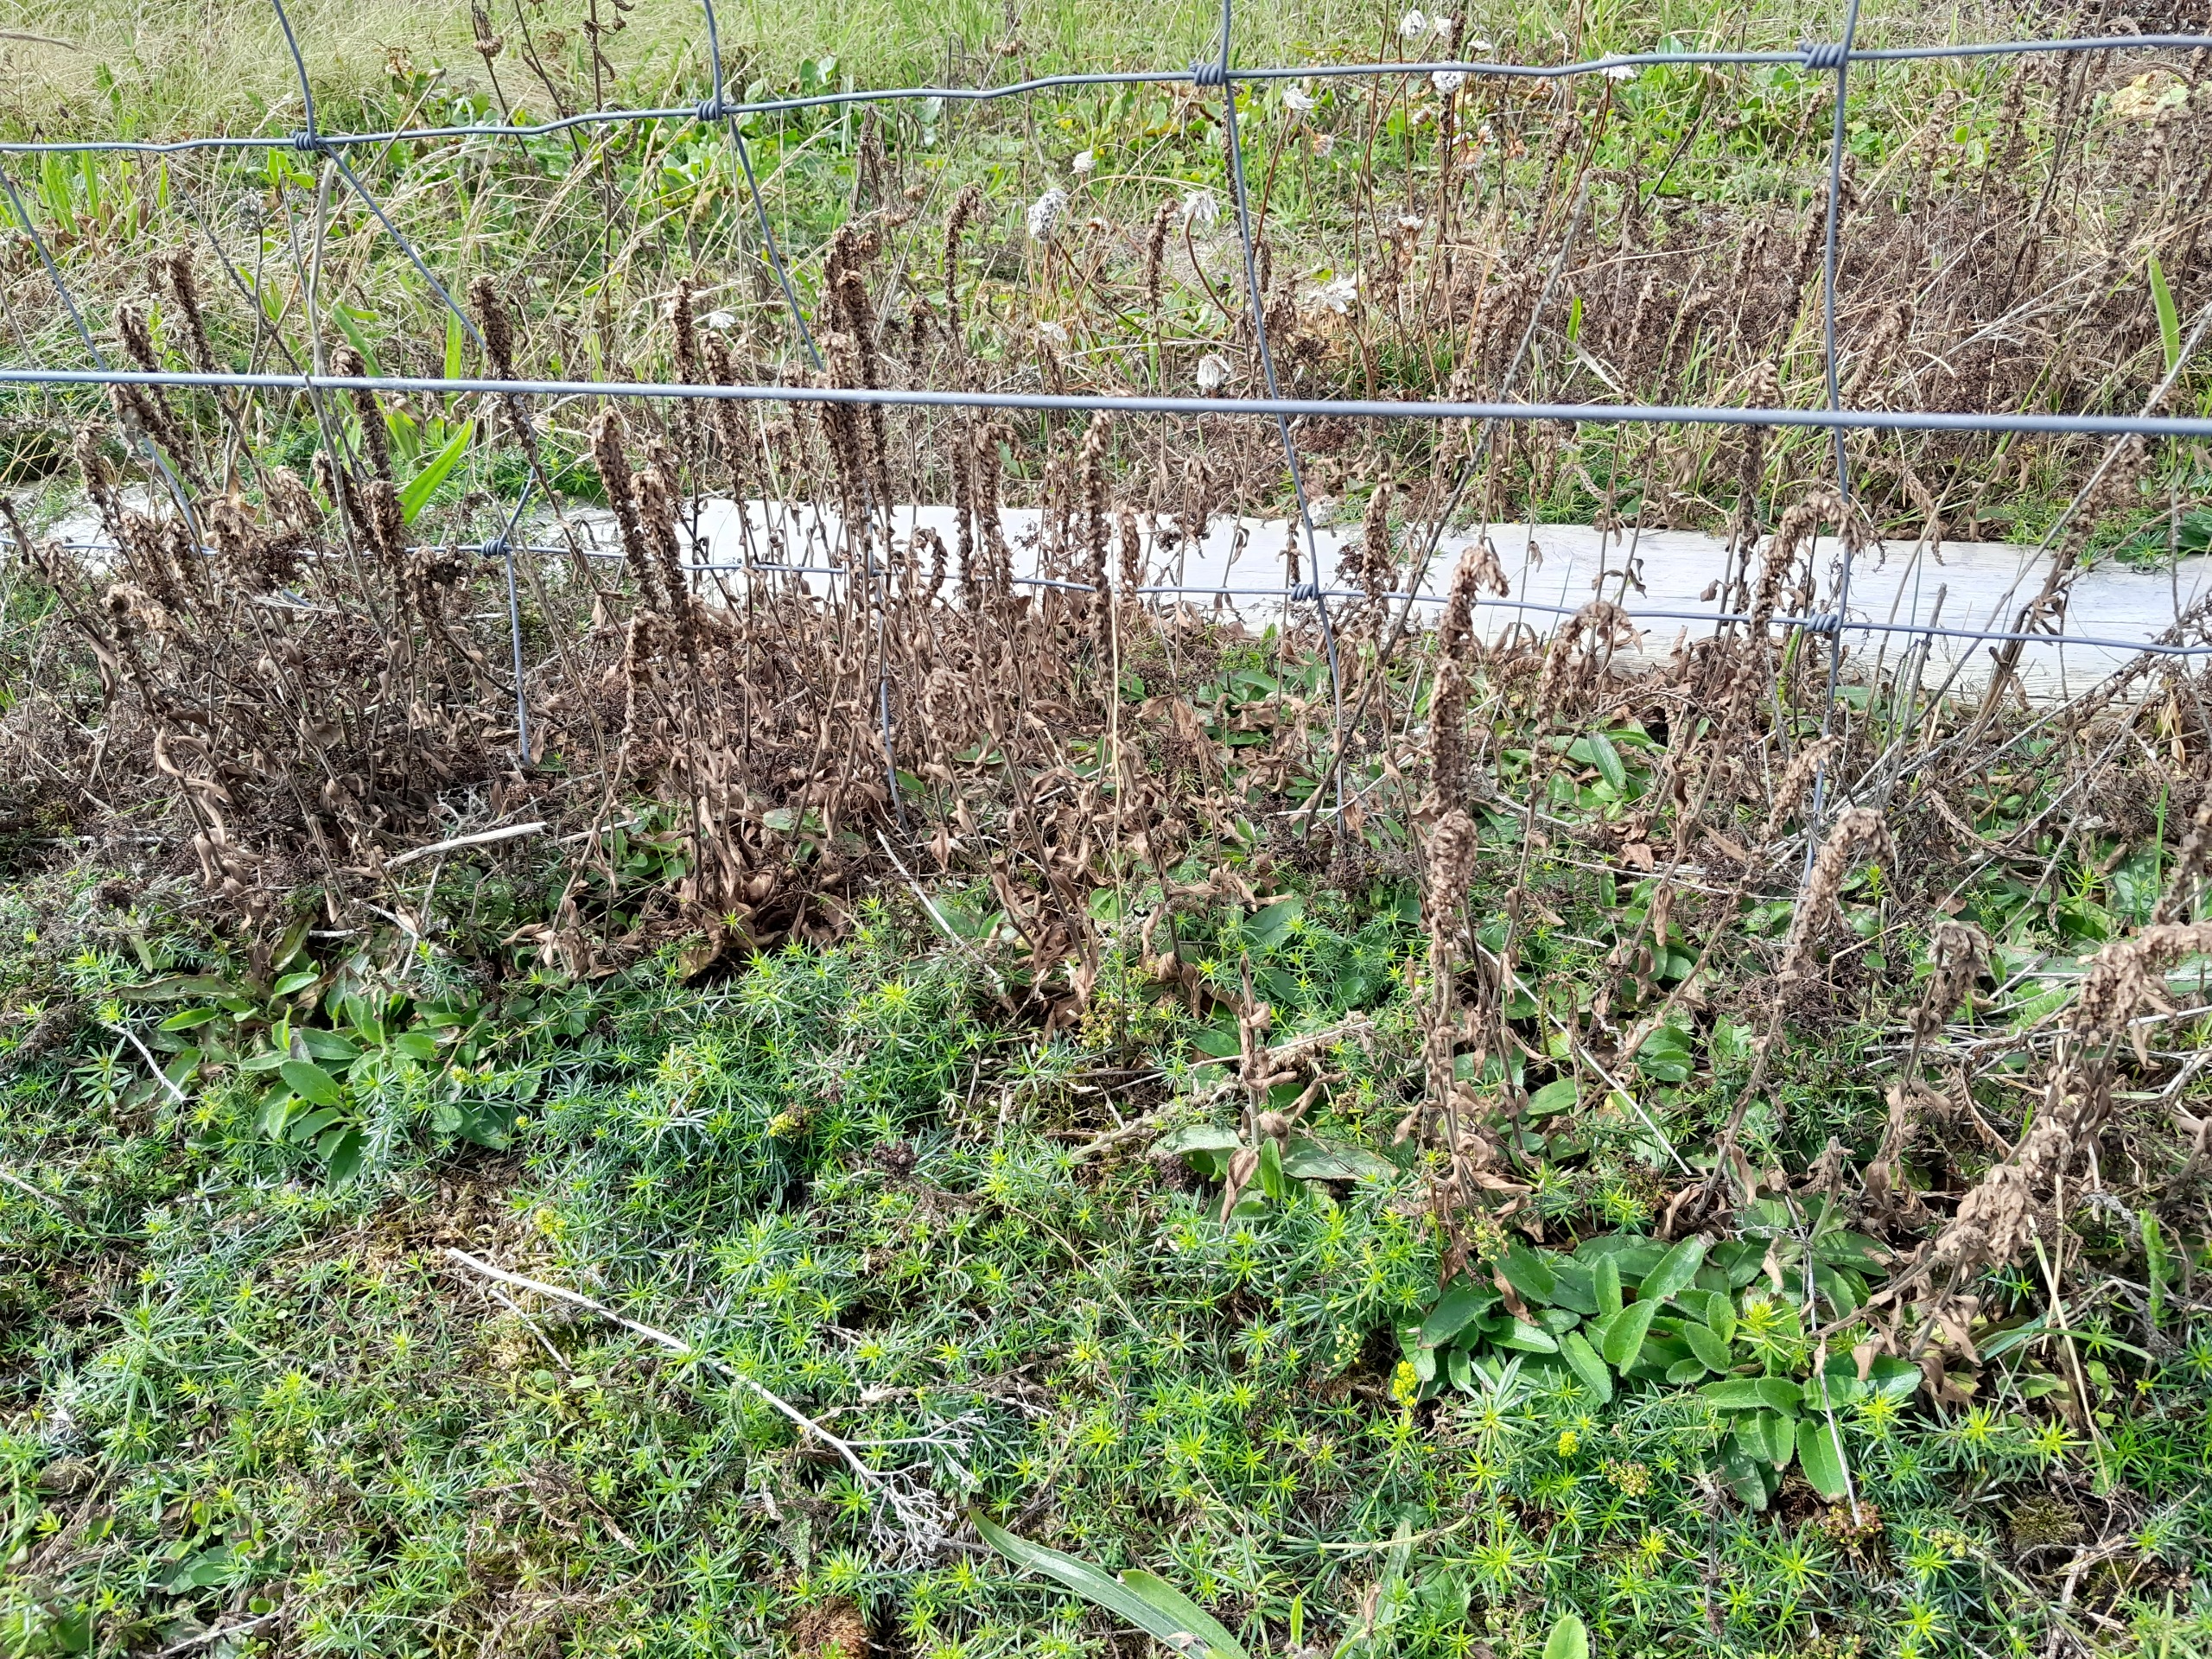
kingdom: Plantae
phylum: Tracheophyta
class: Magnoliopsida
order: Lamiales
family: Plantaginaceae
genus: Veronica
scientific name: Veronica spicata
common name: Aks-ærenpris
